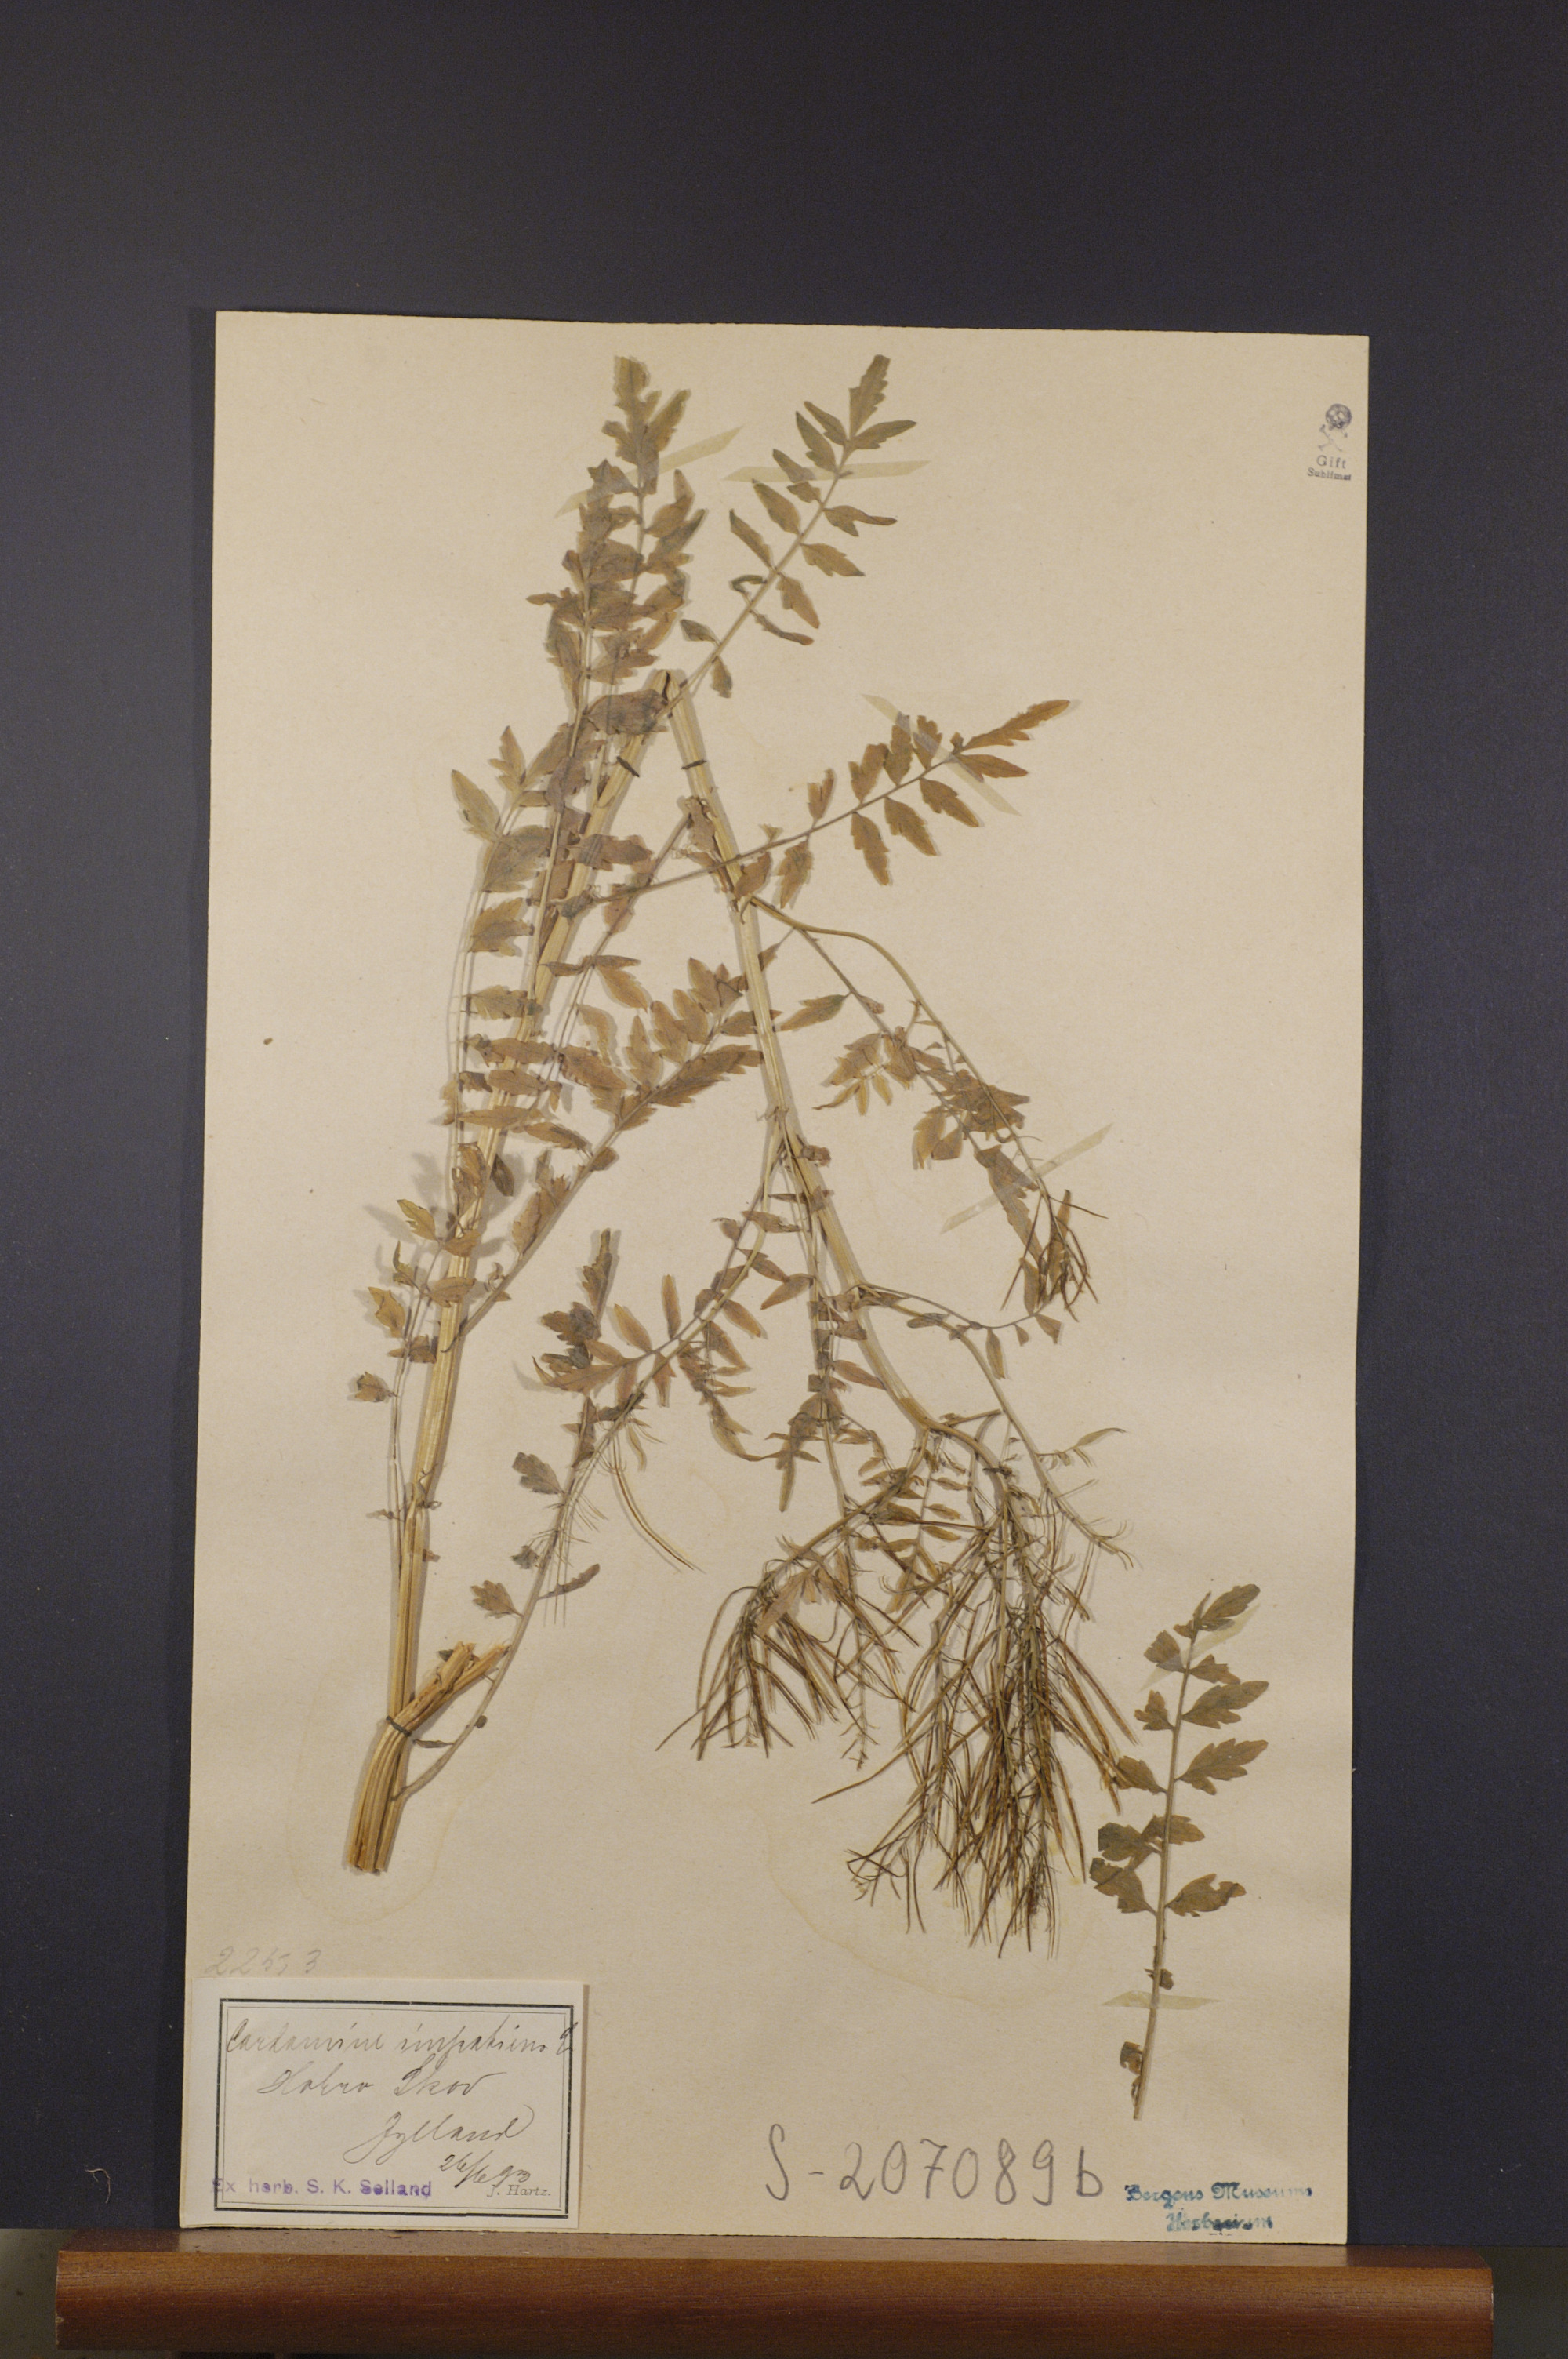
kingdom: Plantae
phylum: Tracheophyta
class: Magnoliopsida
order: Brassicales
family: Brassicaceae
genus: Cardamine
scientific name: Cardamine impatiens
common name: Narrow-leaved bitter-cress
